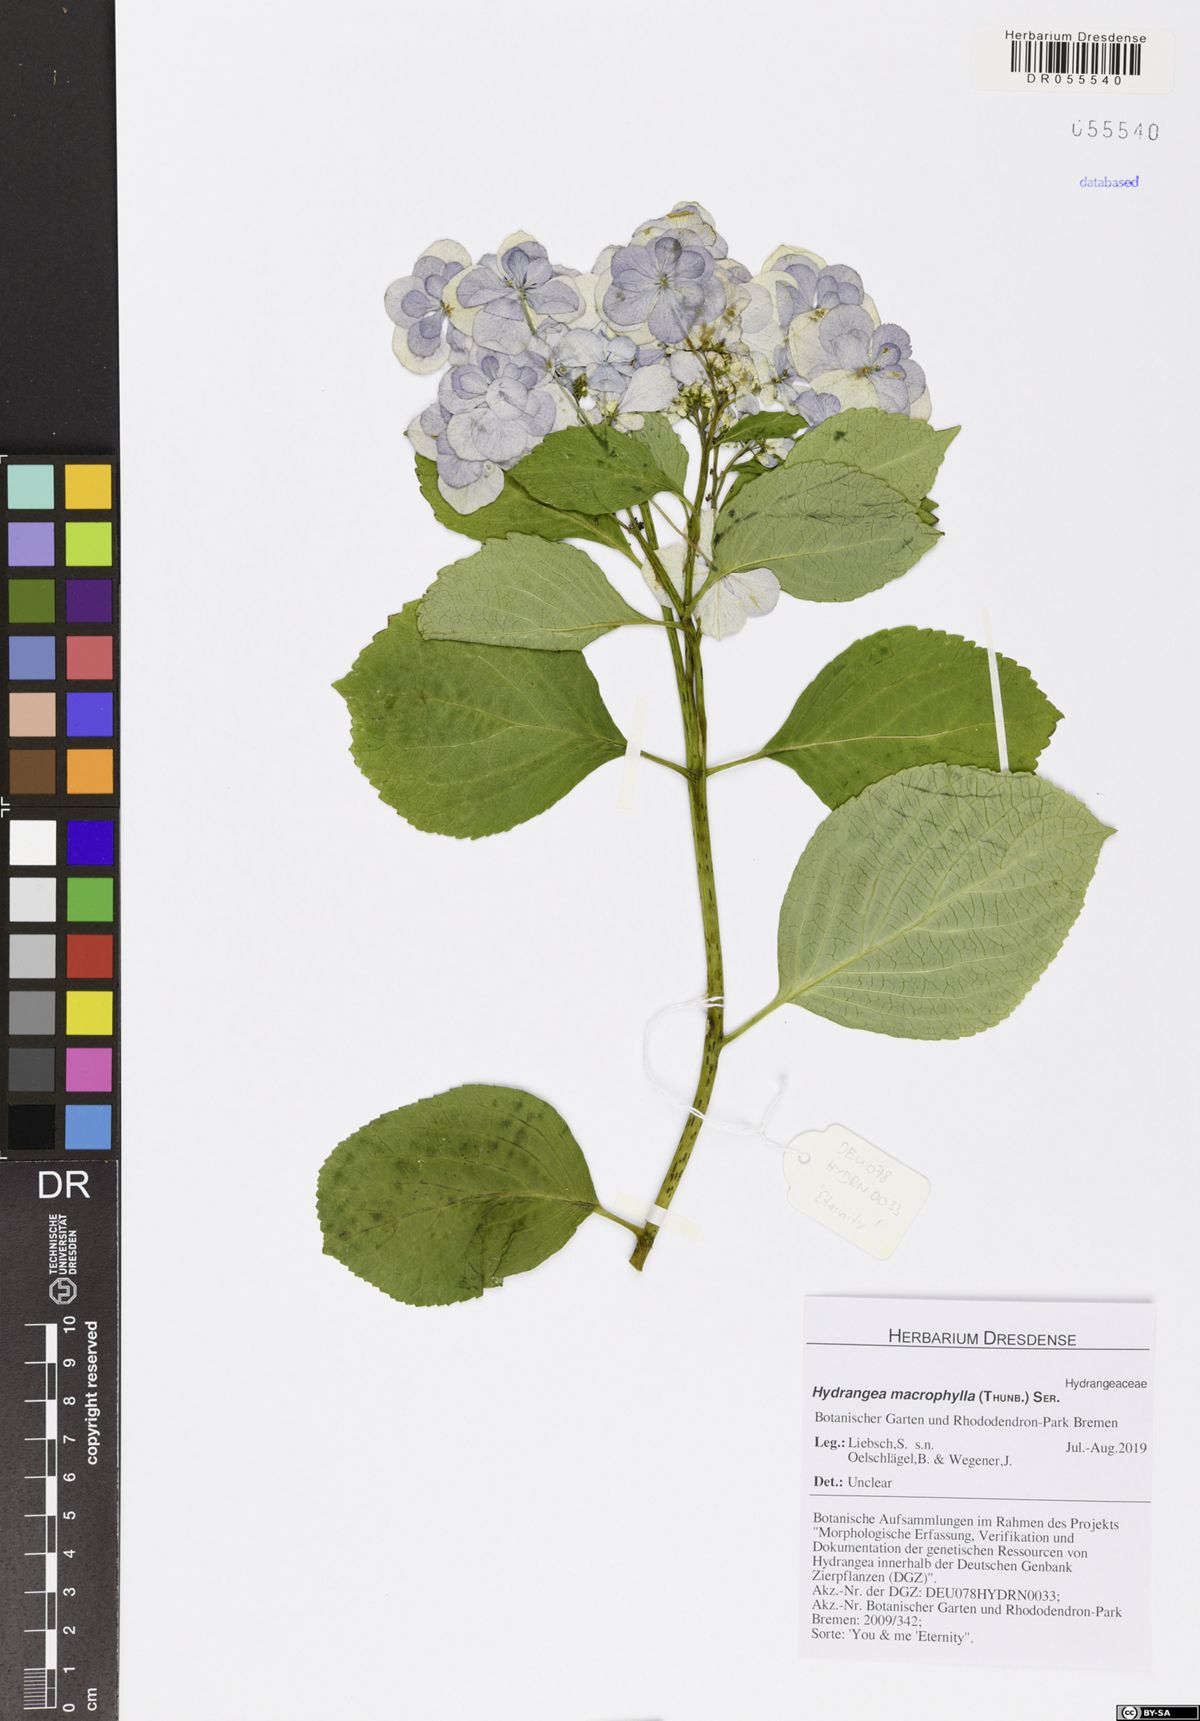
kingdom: Plantae
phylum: Tracheophyta
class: Magnoliopsida
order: Cornales
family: Hydrangeaceae
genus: Hydrangea
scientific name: Hydrangea macrophylla
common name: Hydrangea
